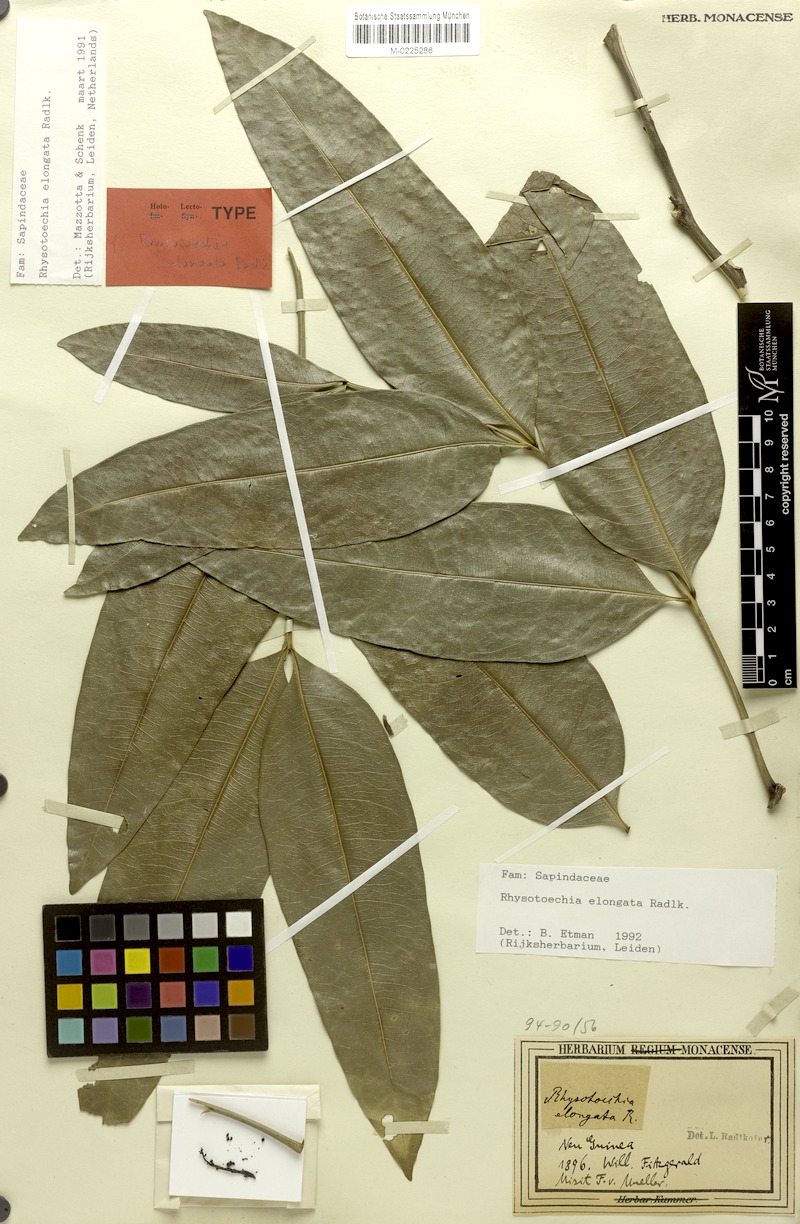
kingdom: Plantae
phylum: Tracheophyta
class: Magnoliopsida
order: Sapindales
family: Sapindaceae
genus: Rhysotoechia
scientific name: Rhysotoechia elongata
